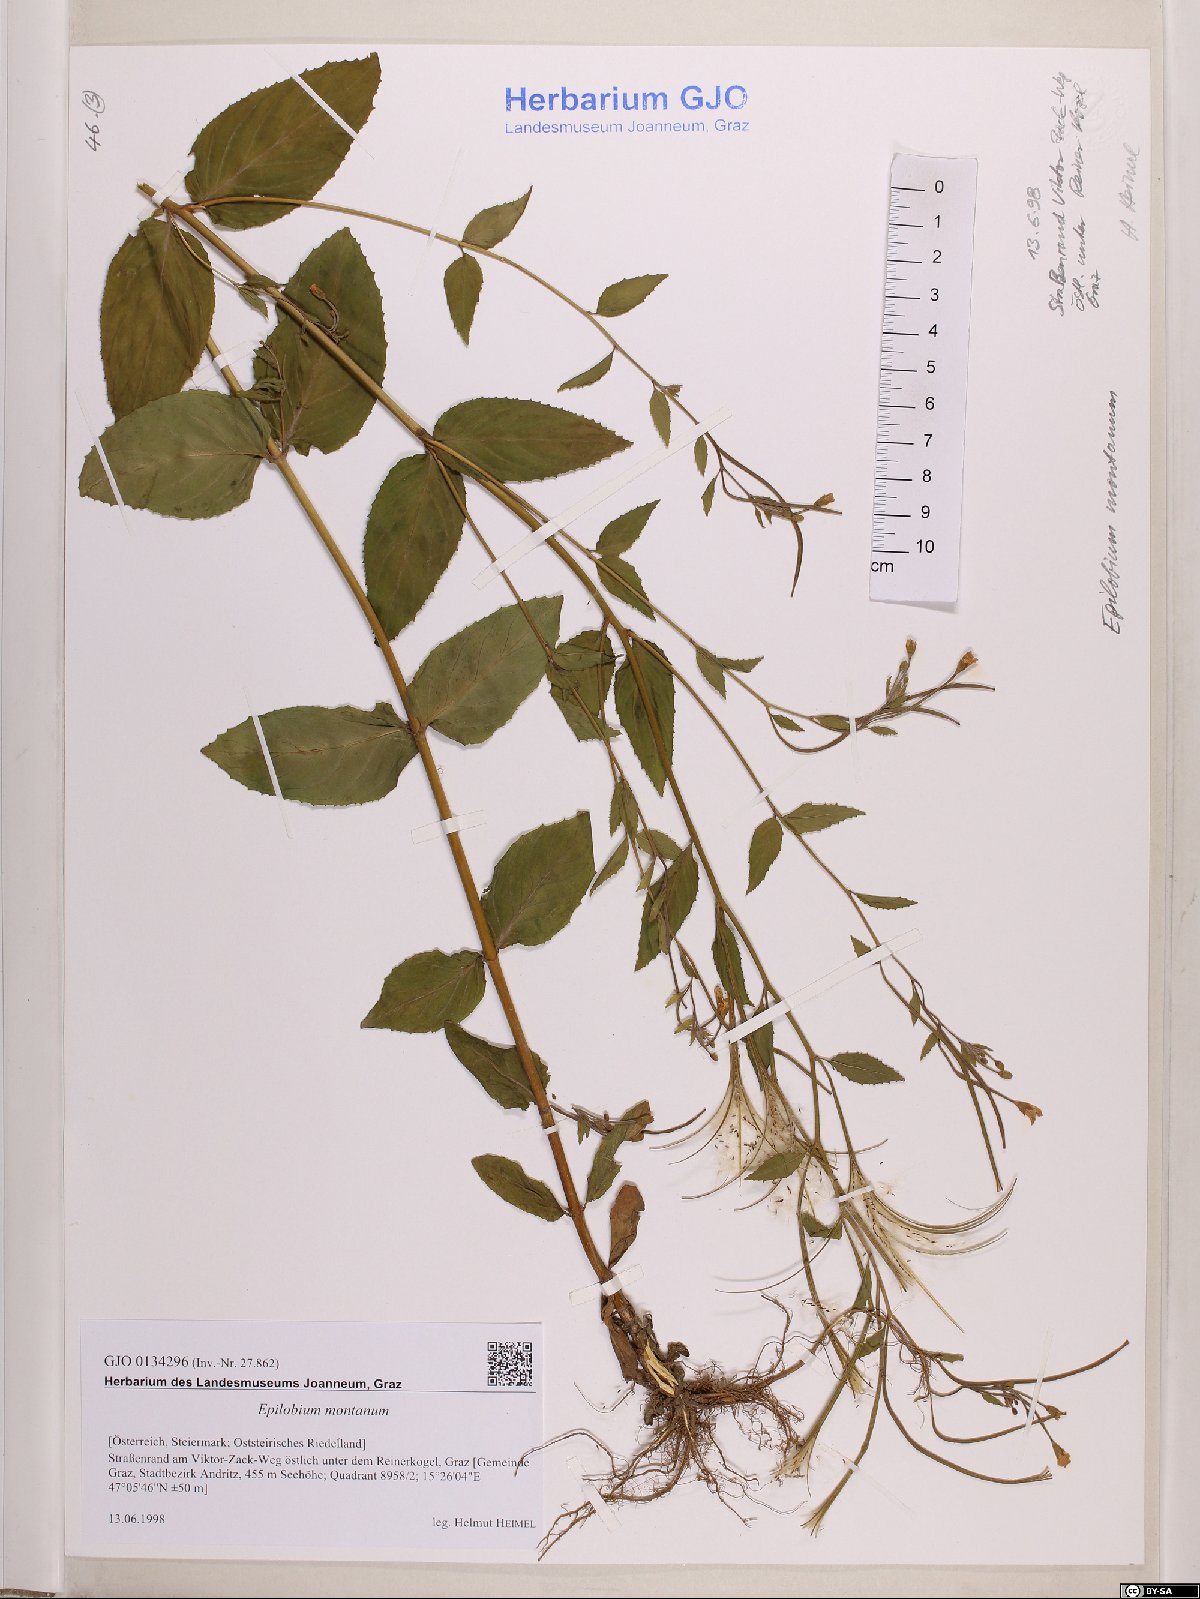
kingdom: Plantae
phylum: Tracheophyta
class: Magnoliopsida
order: Myrtales
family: Onagraceae
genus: Epilobium
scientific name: Epilobium montanum
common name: Broad-leaved willowherb
